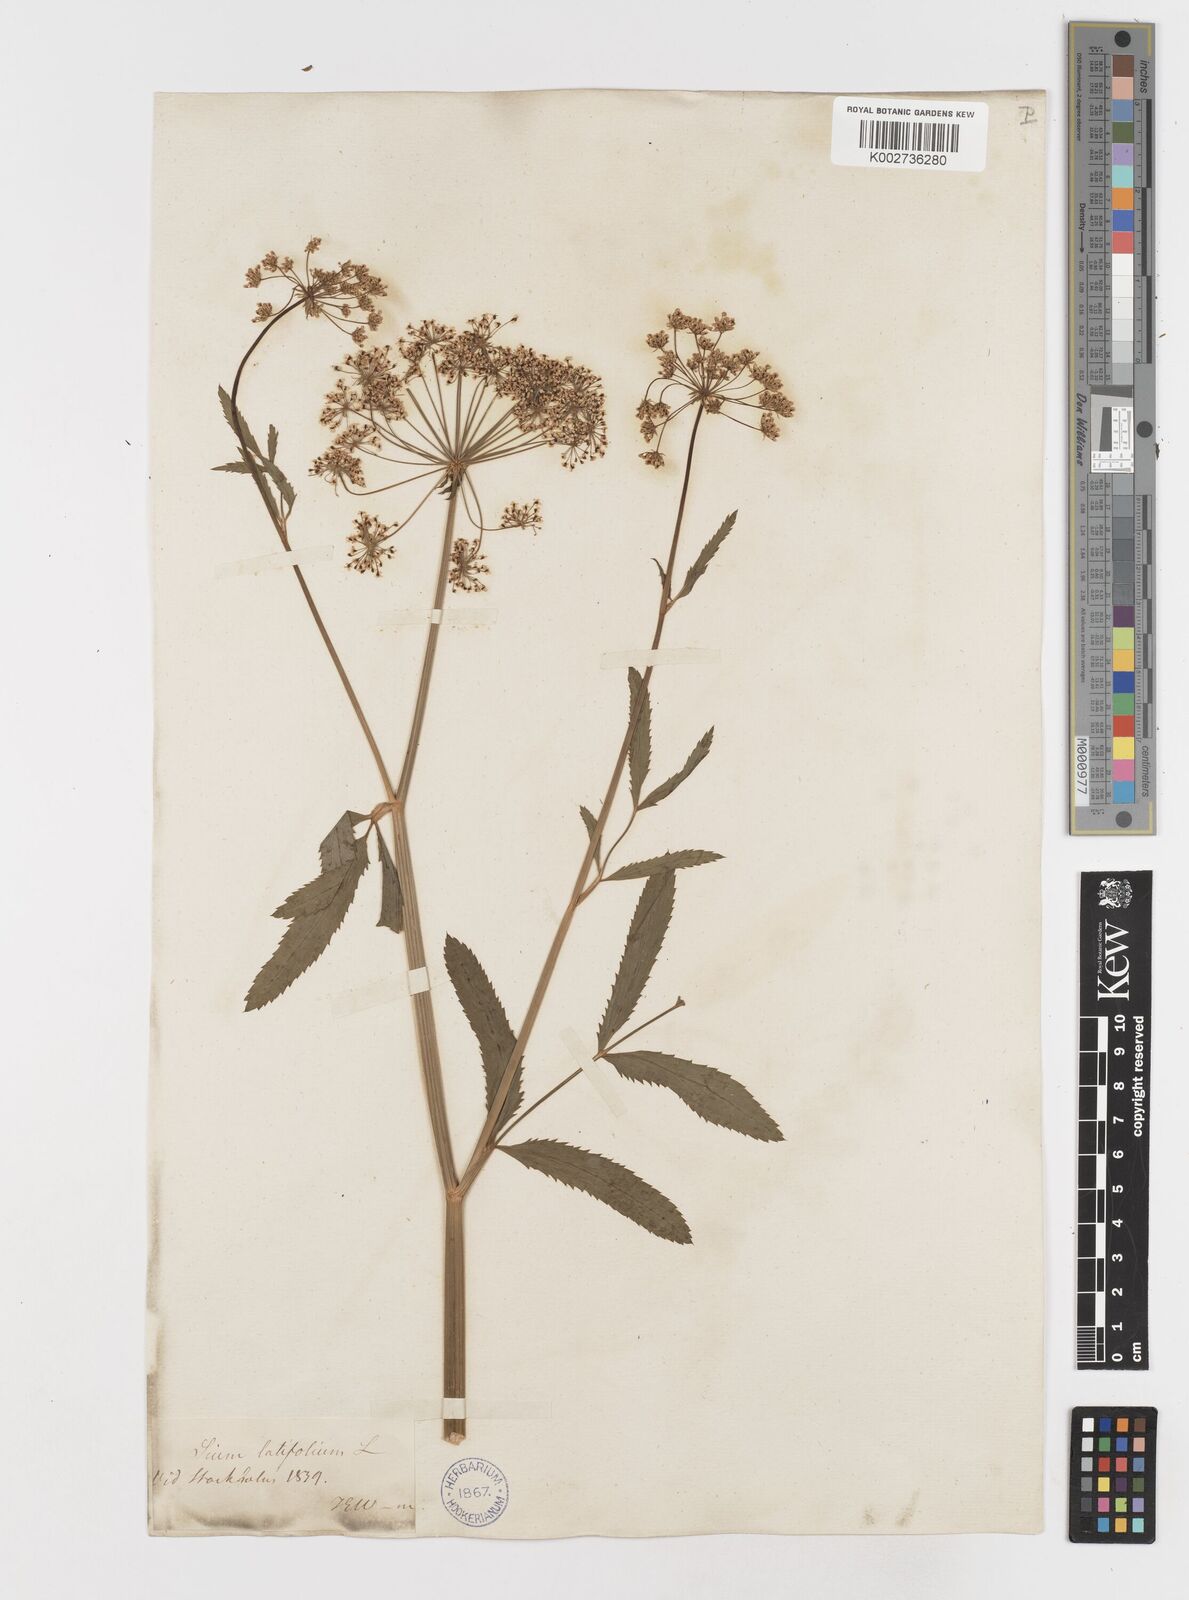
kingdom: Plantae
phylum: Tracheophyta
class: Magnoliopsida
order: Apiales
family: Apiaceae
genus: Sium
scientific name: Sium latifolium
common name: Greater water-parsnip
